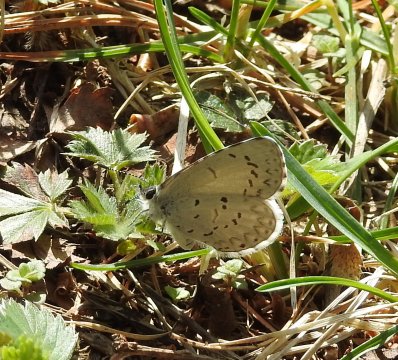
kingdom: Animalia
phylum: Arthropoda
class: Insecta
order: Lepidoptera
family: Lycaenidae
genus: Celastrina
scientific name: Celastrina lucia
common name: Northern Spring Azure
